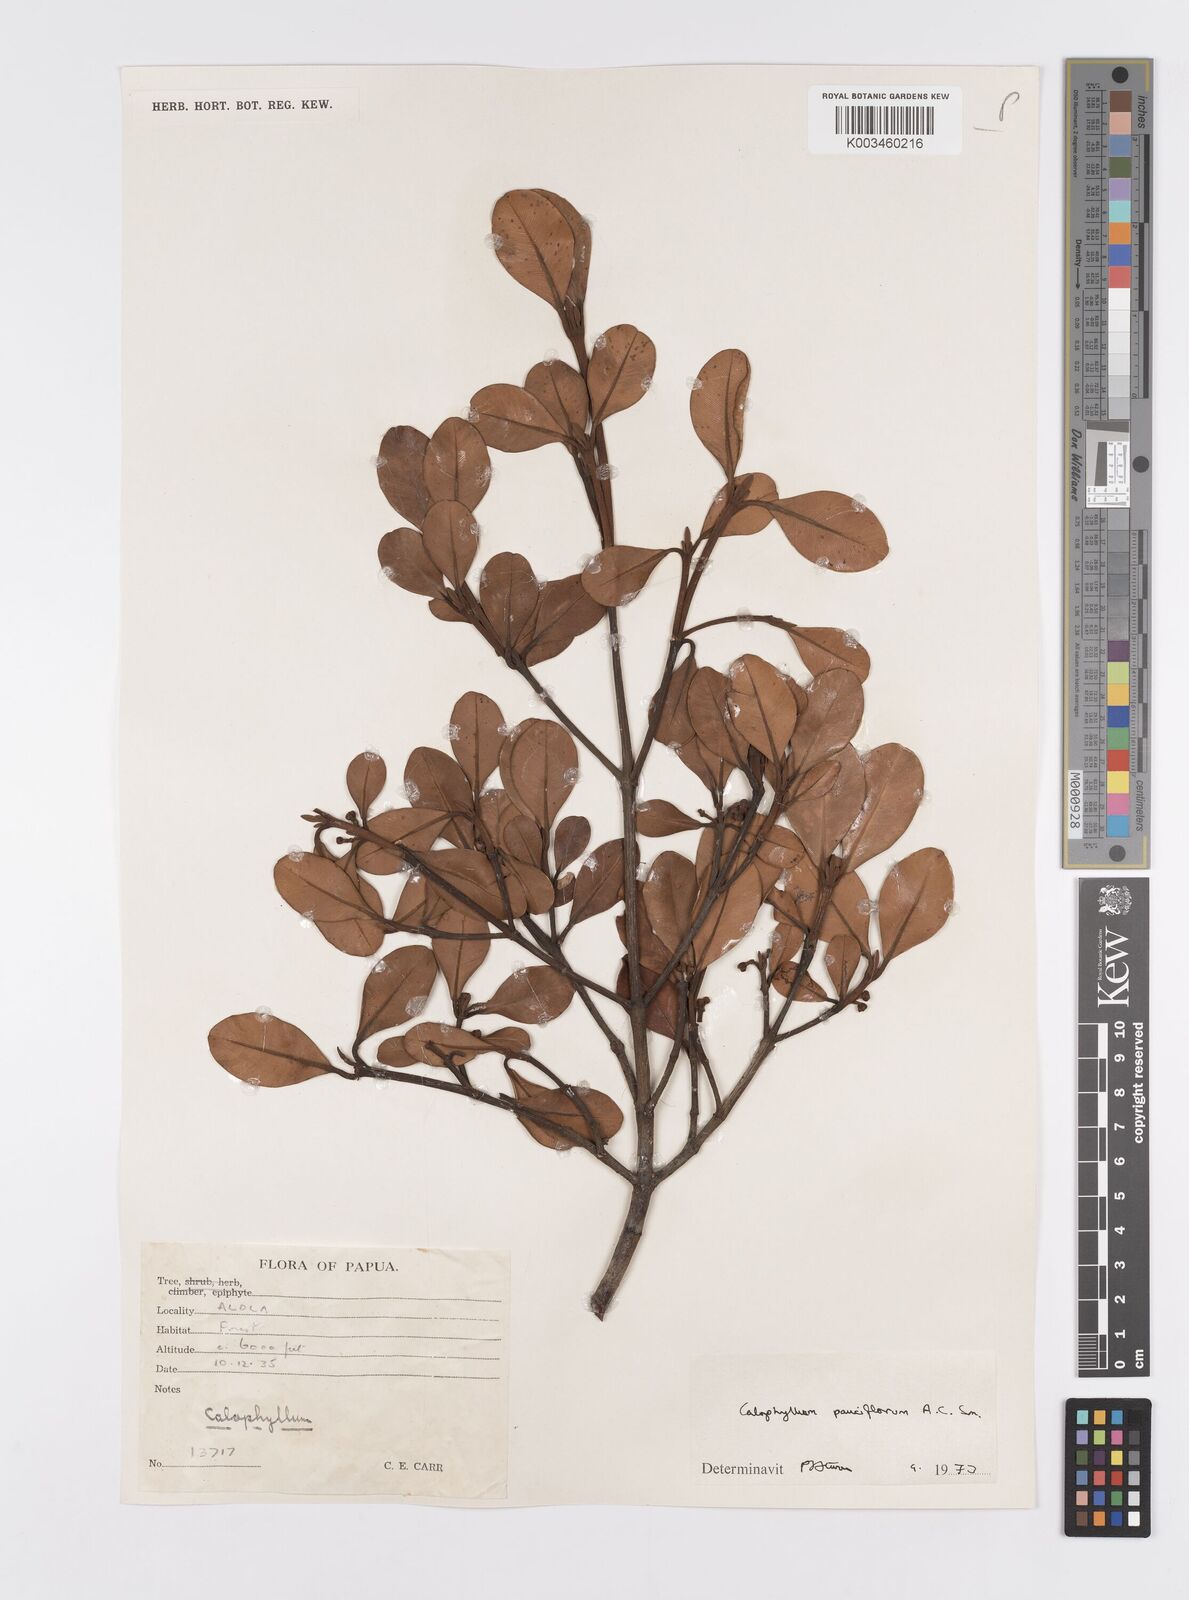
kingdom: Plantae
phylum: Tracheophyta
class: Magnoliopsida
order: Malpighiales
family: Calophyllaceae
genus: Calophyllum
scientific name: Calophyllum parviflorum
